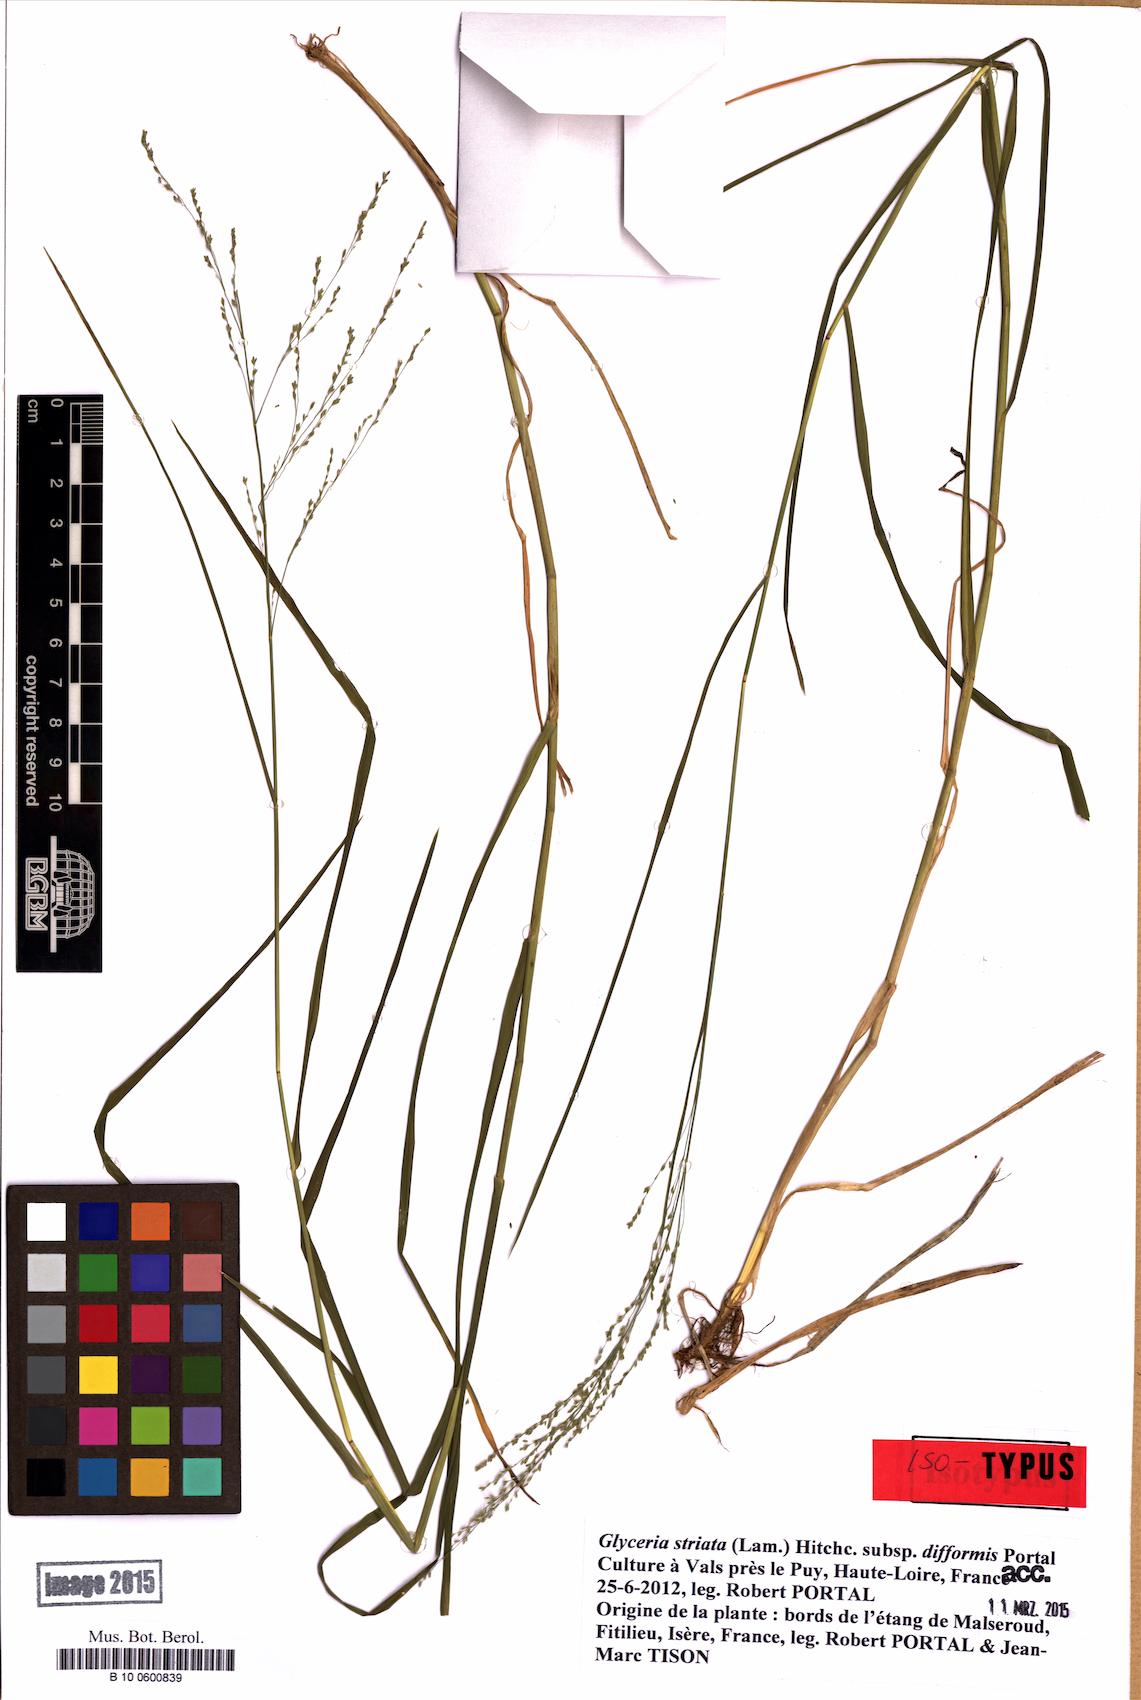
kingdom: Plantae
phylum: Tracheophyta
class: Liliopsida
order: Poales
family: Poaceae
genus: Glyceria
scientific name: Glyceria striata
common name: Fowl manna grass
